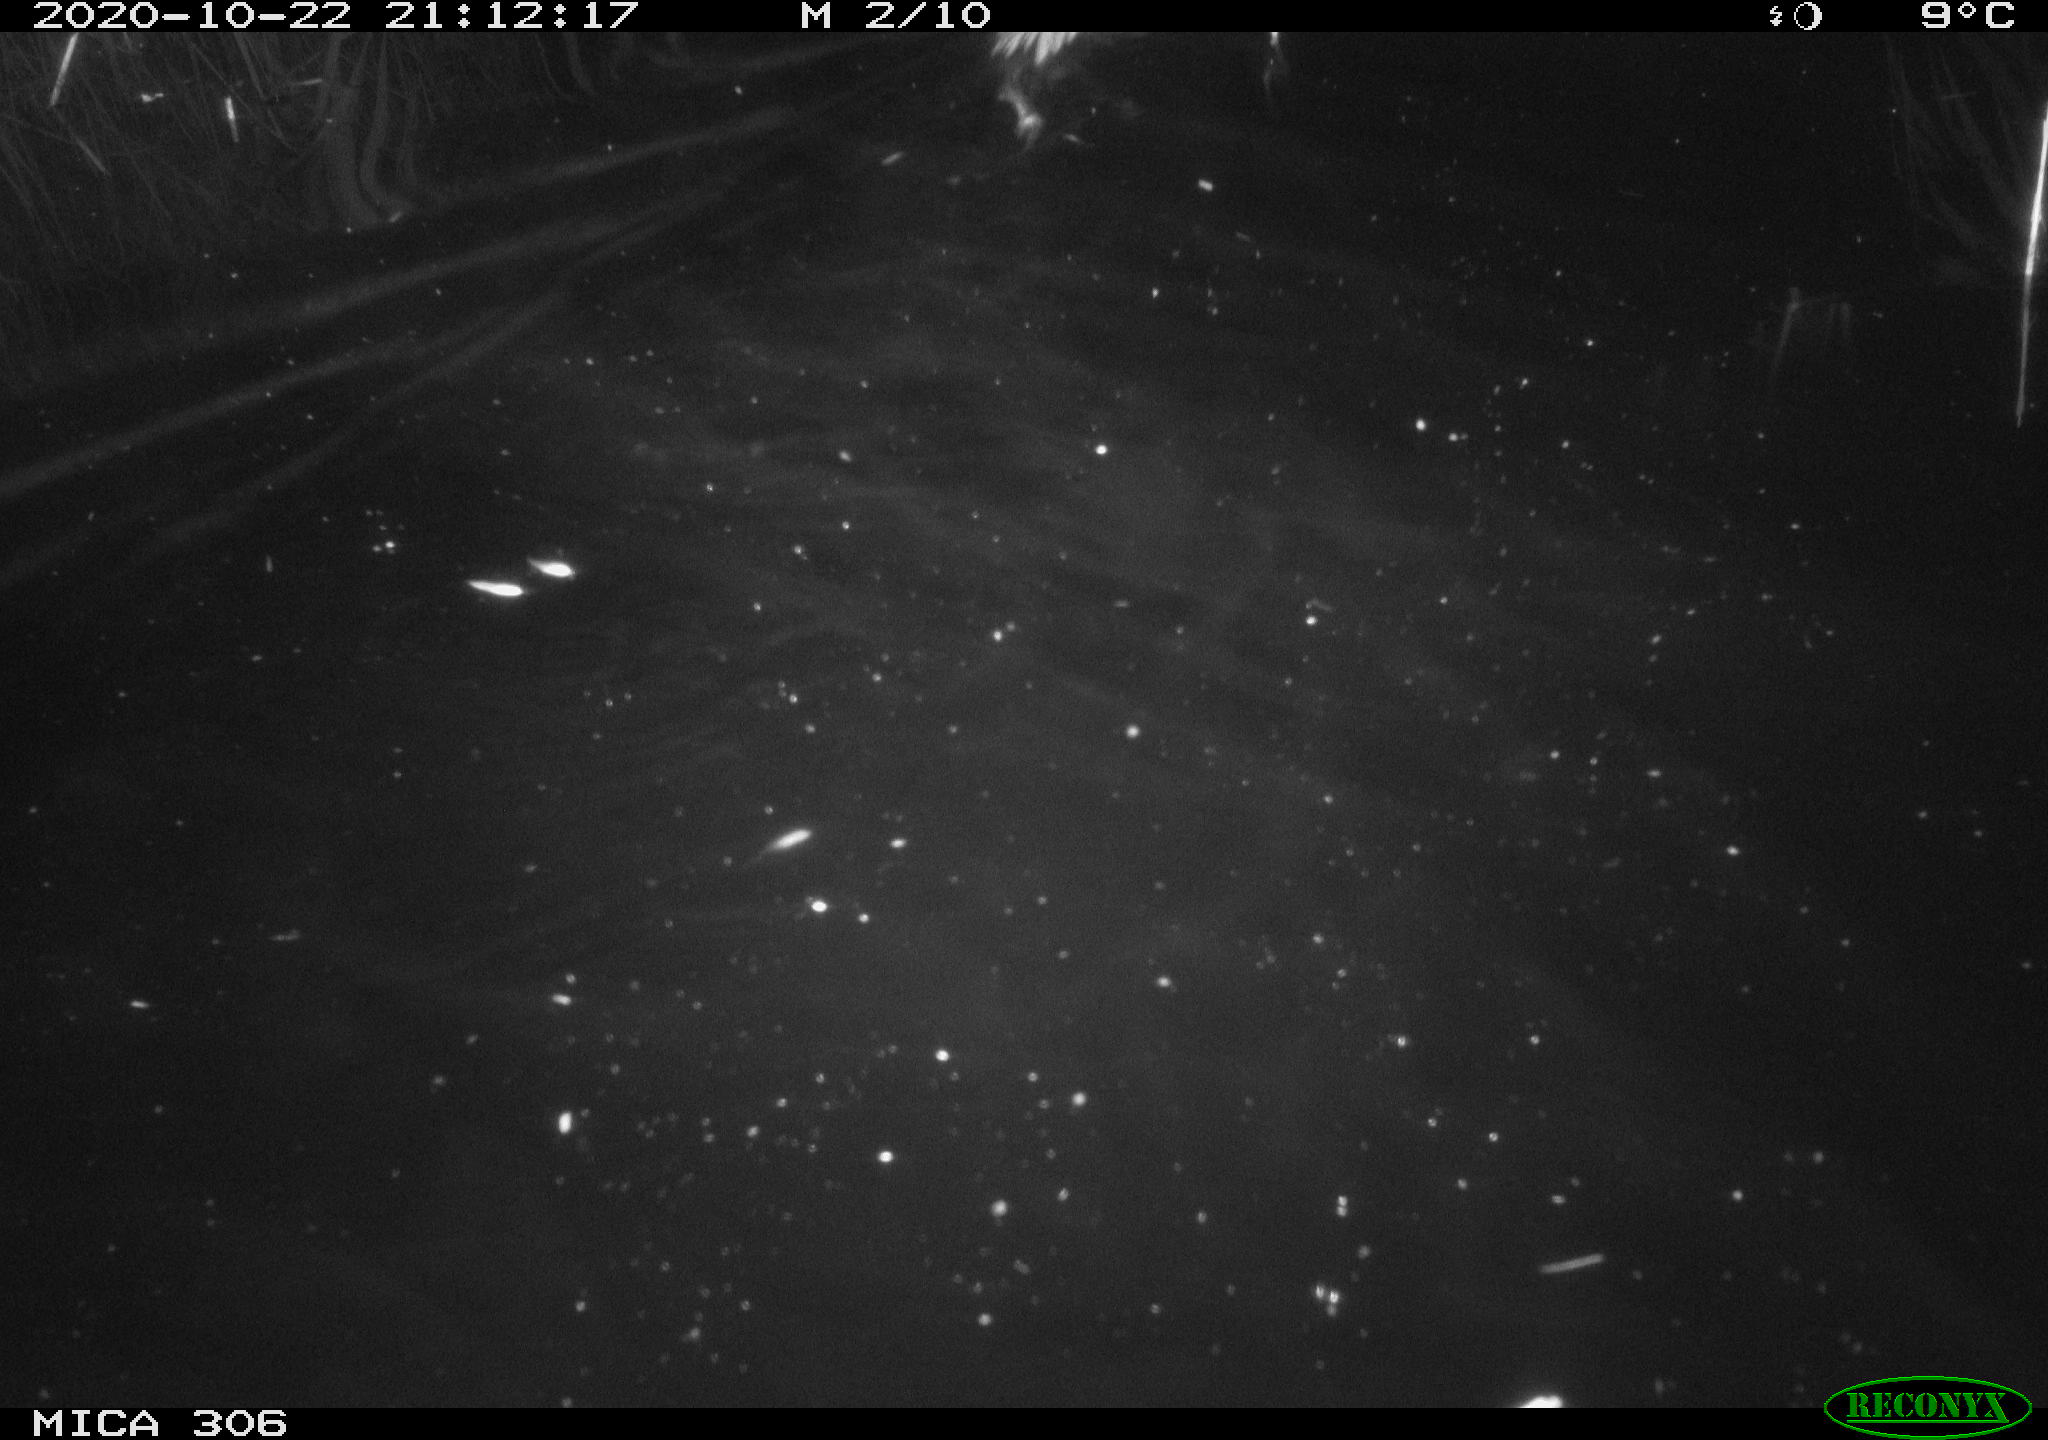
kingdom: Animalia
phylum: Chordata
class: Mammalia
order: Rodentia
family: Cricetidae
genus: Ondatra
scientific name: Ondatra zibethicus
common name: Muskrat
